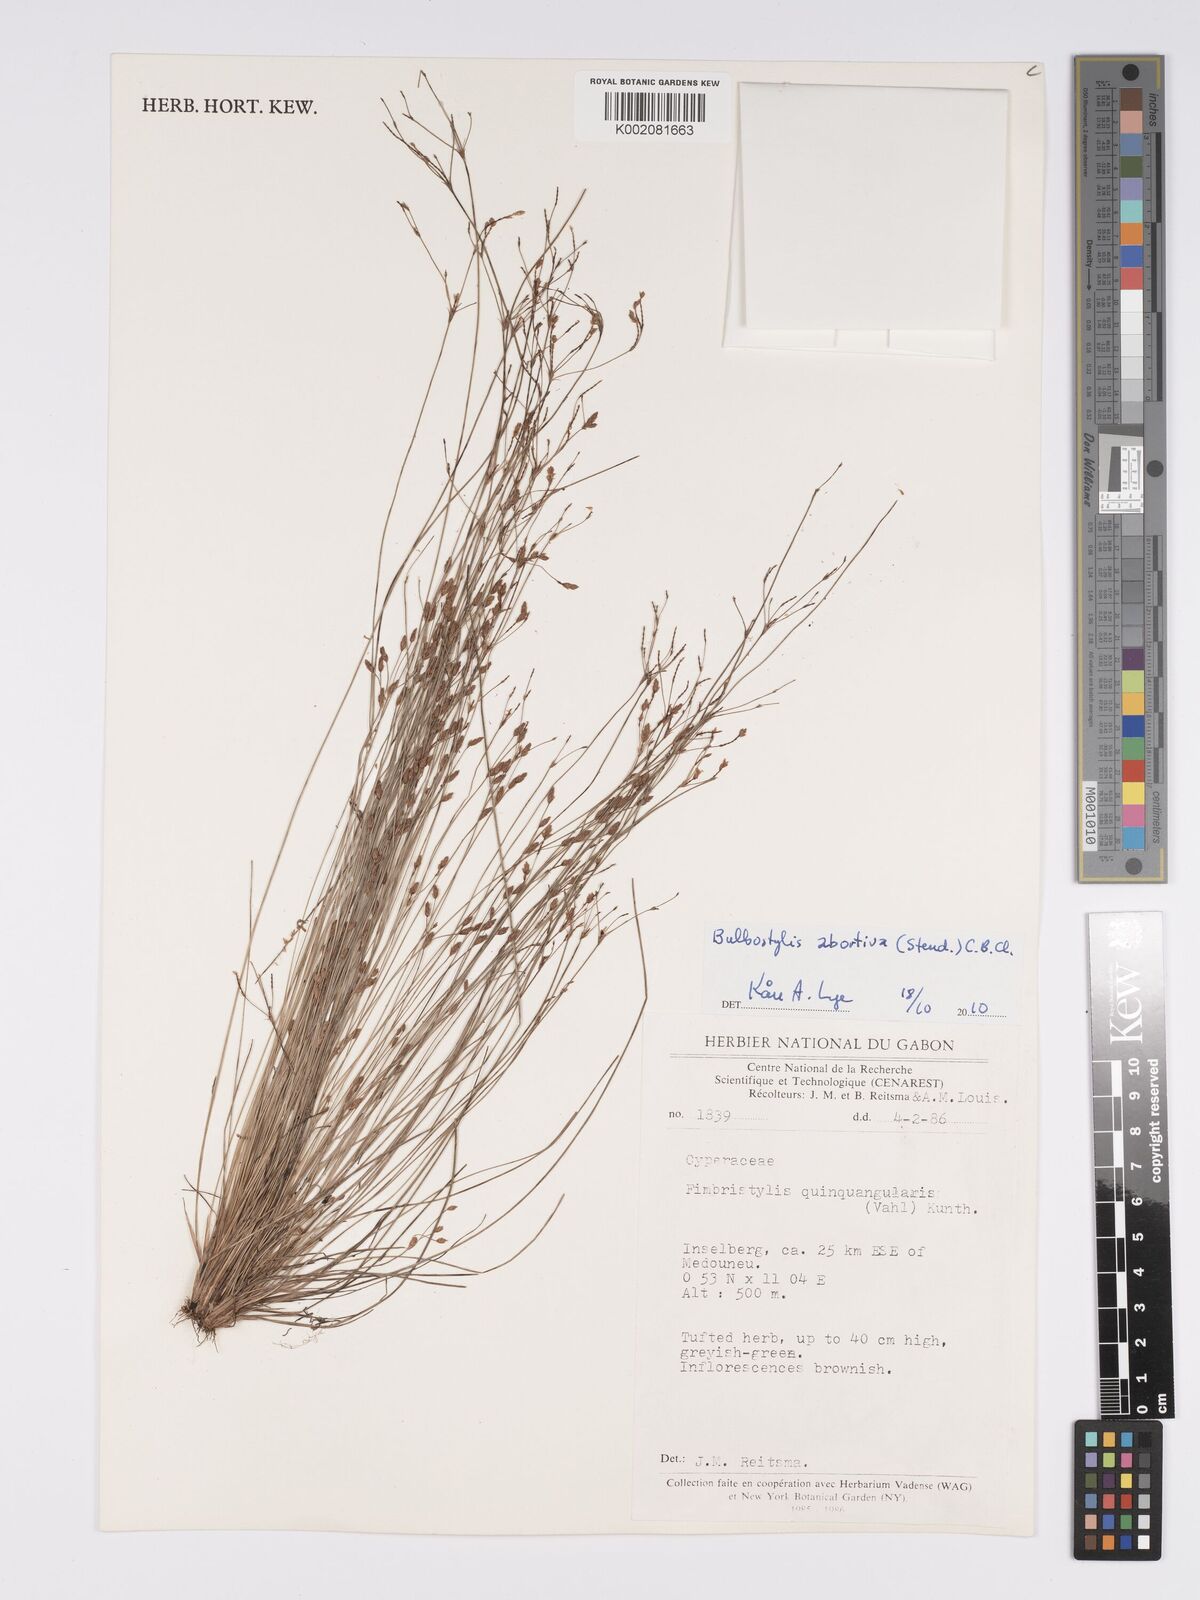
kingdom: Plantae
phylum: Tracheophyta
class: Liliopsida
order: Poales
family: Cyperaceae
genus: Bulbostylis
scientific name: Bulbostylis abortiva
